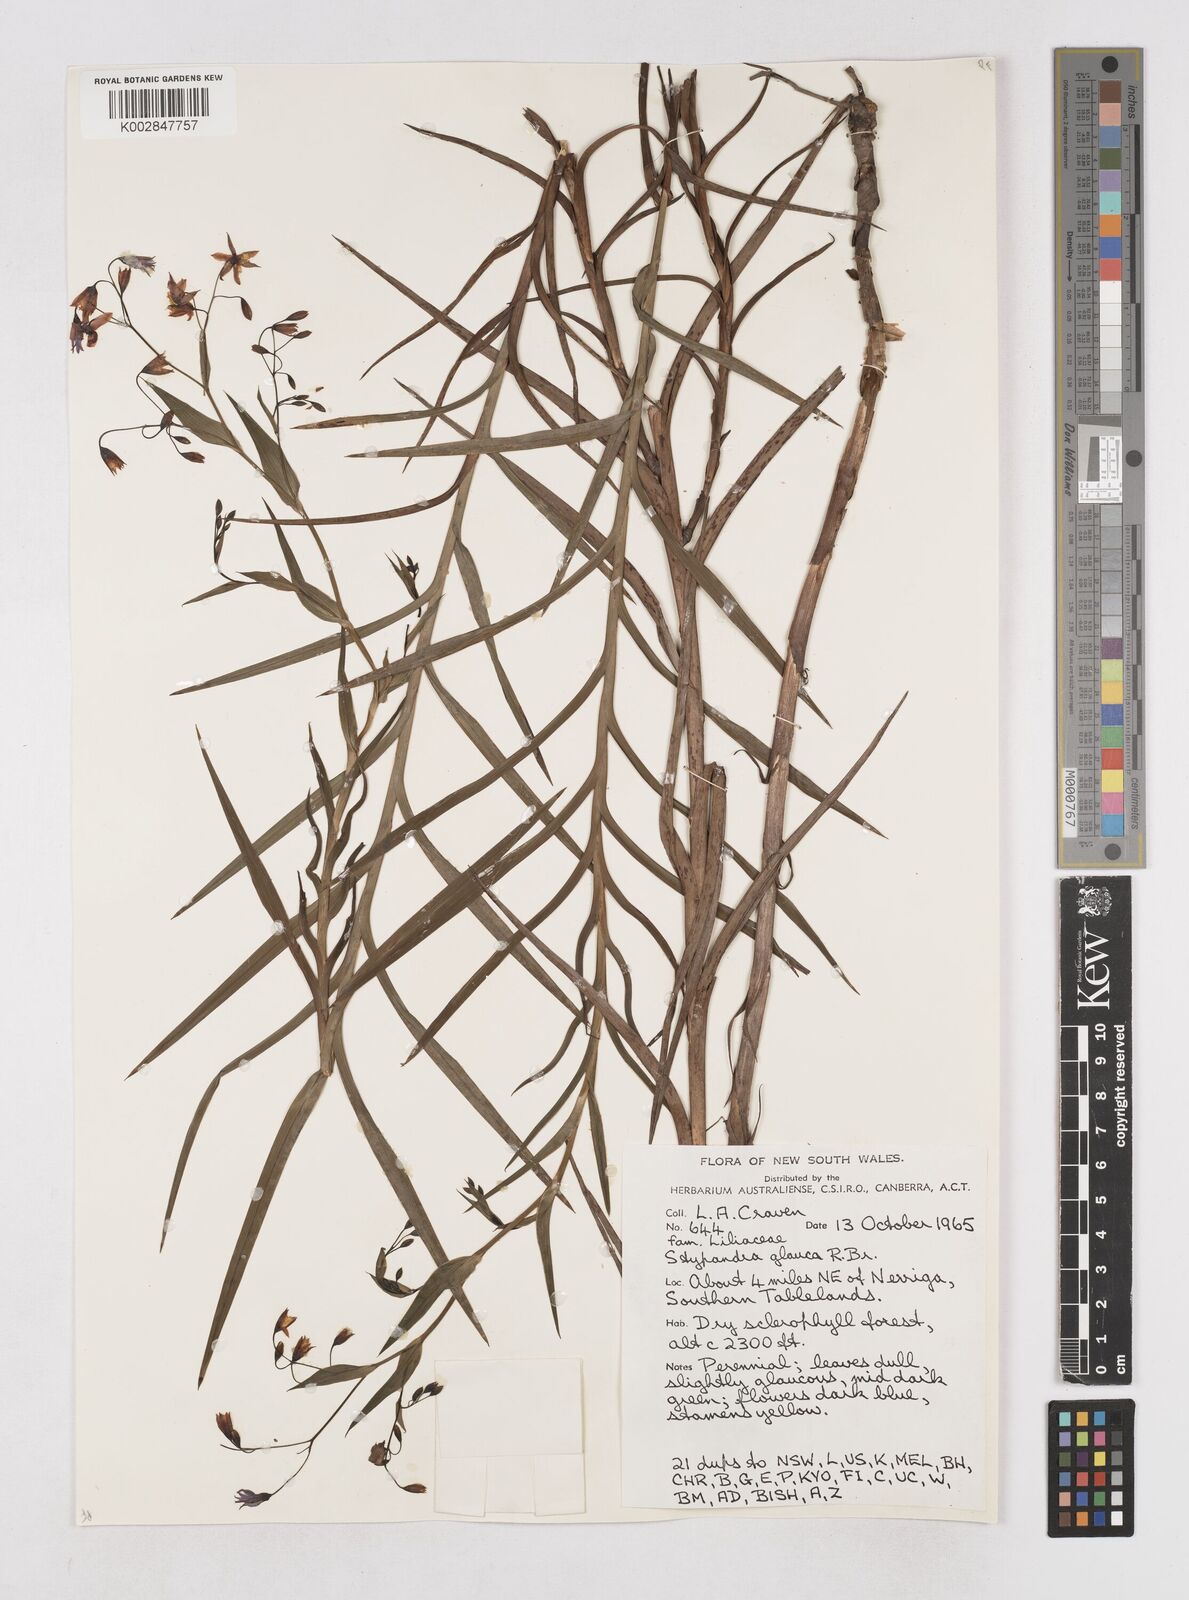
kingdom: Plantae
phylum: Tracheophyta
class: Liliopsida
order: Asparagales
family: Asphodelaceae
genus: Stypandra
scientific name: Stypandra glauca
